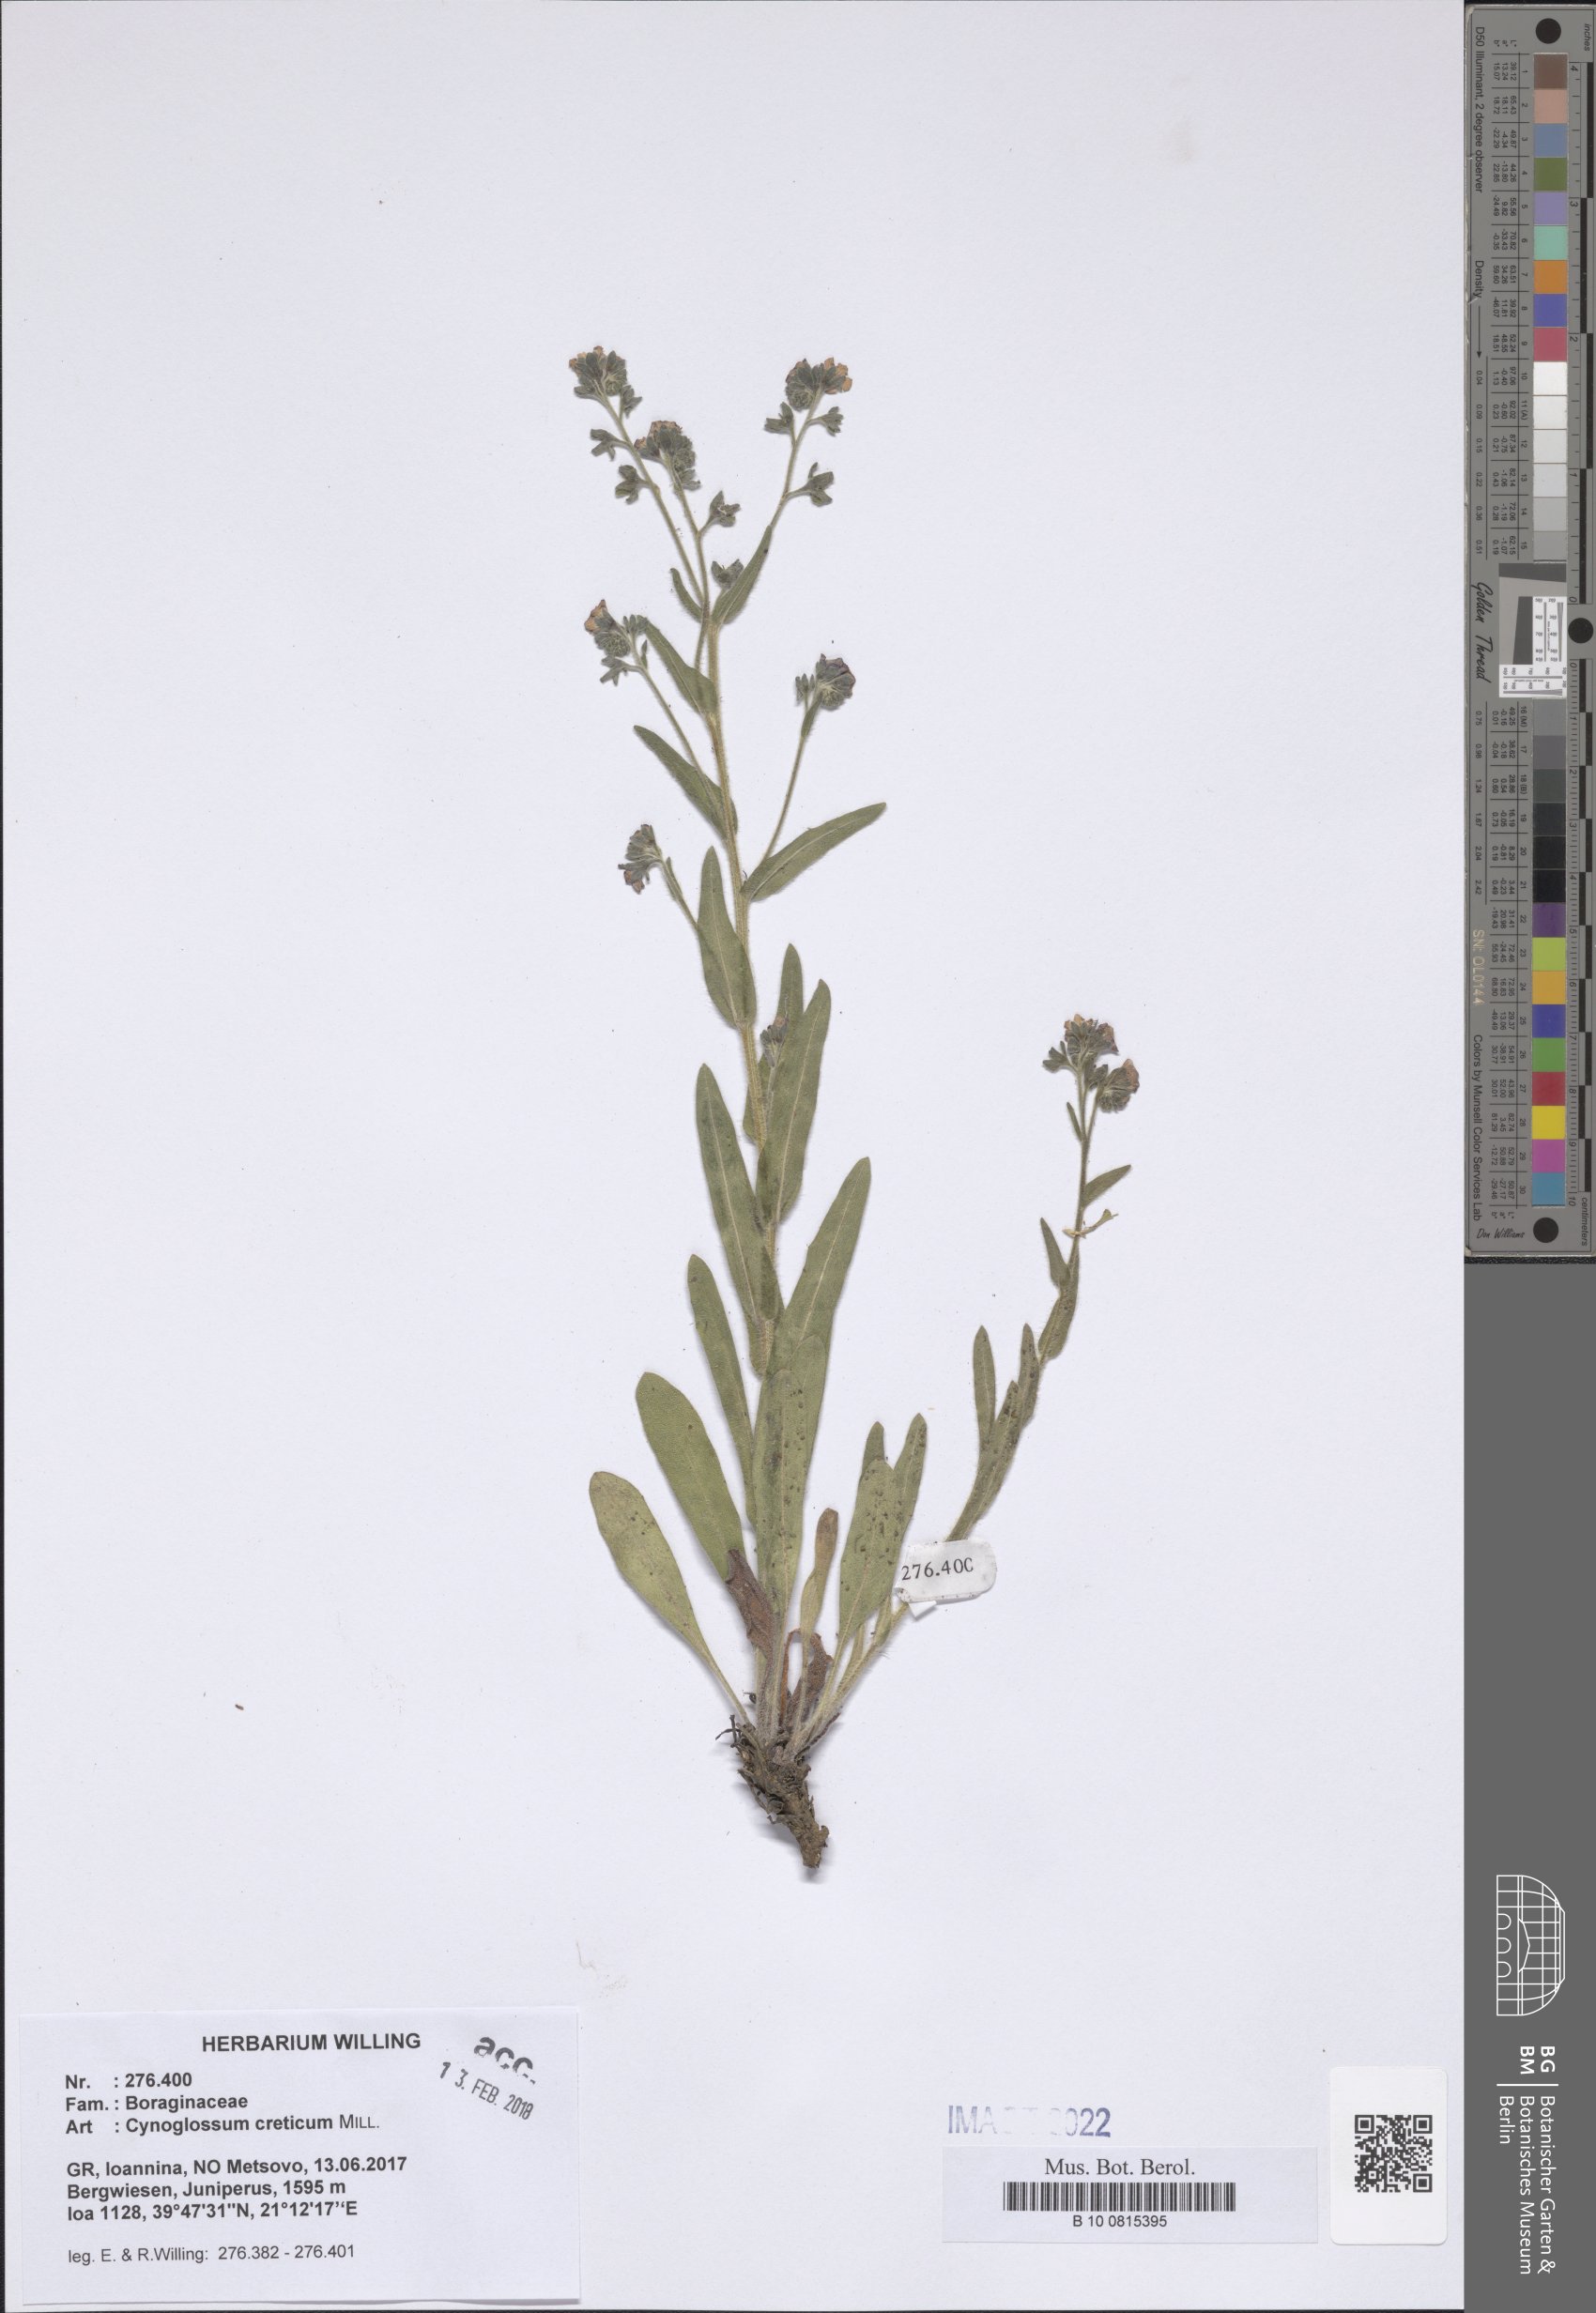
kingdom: Plantae
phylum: Tracheophyta
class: Magnoliopsida
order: Boraginales
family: Boraginaceae
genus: Cynoglossum
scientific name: Cynoglossum pustulatum
